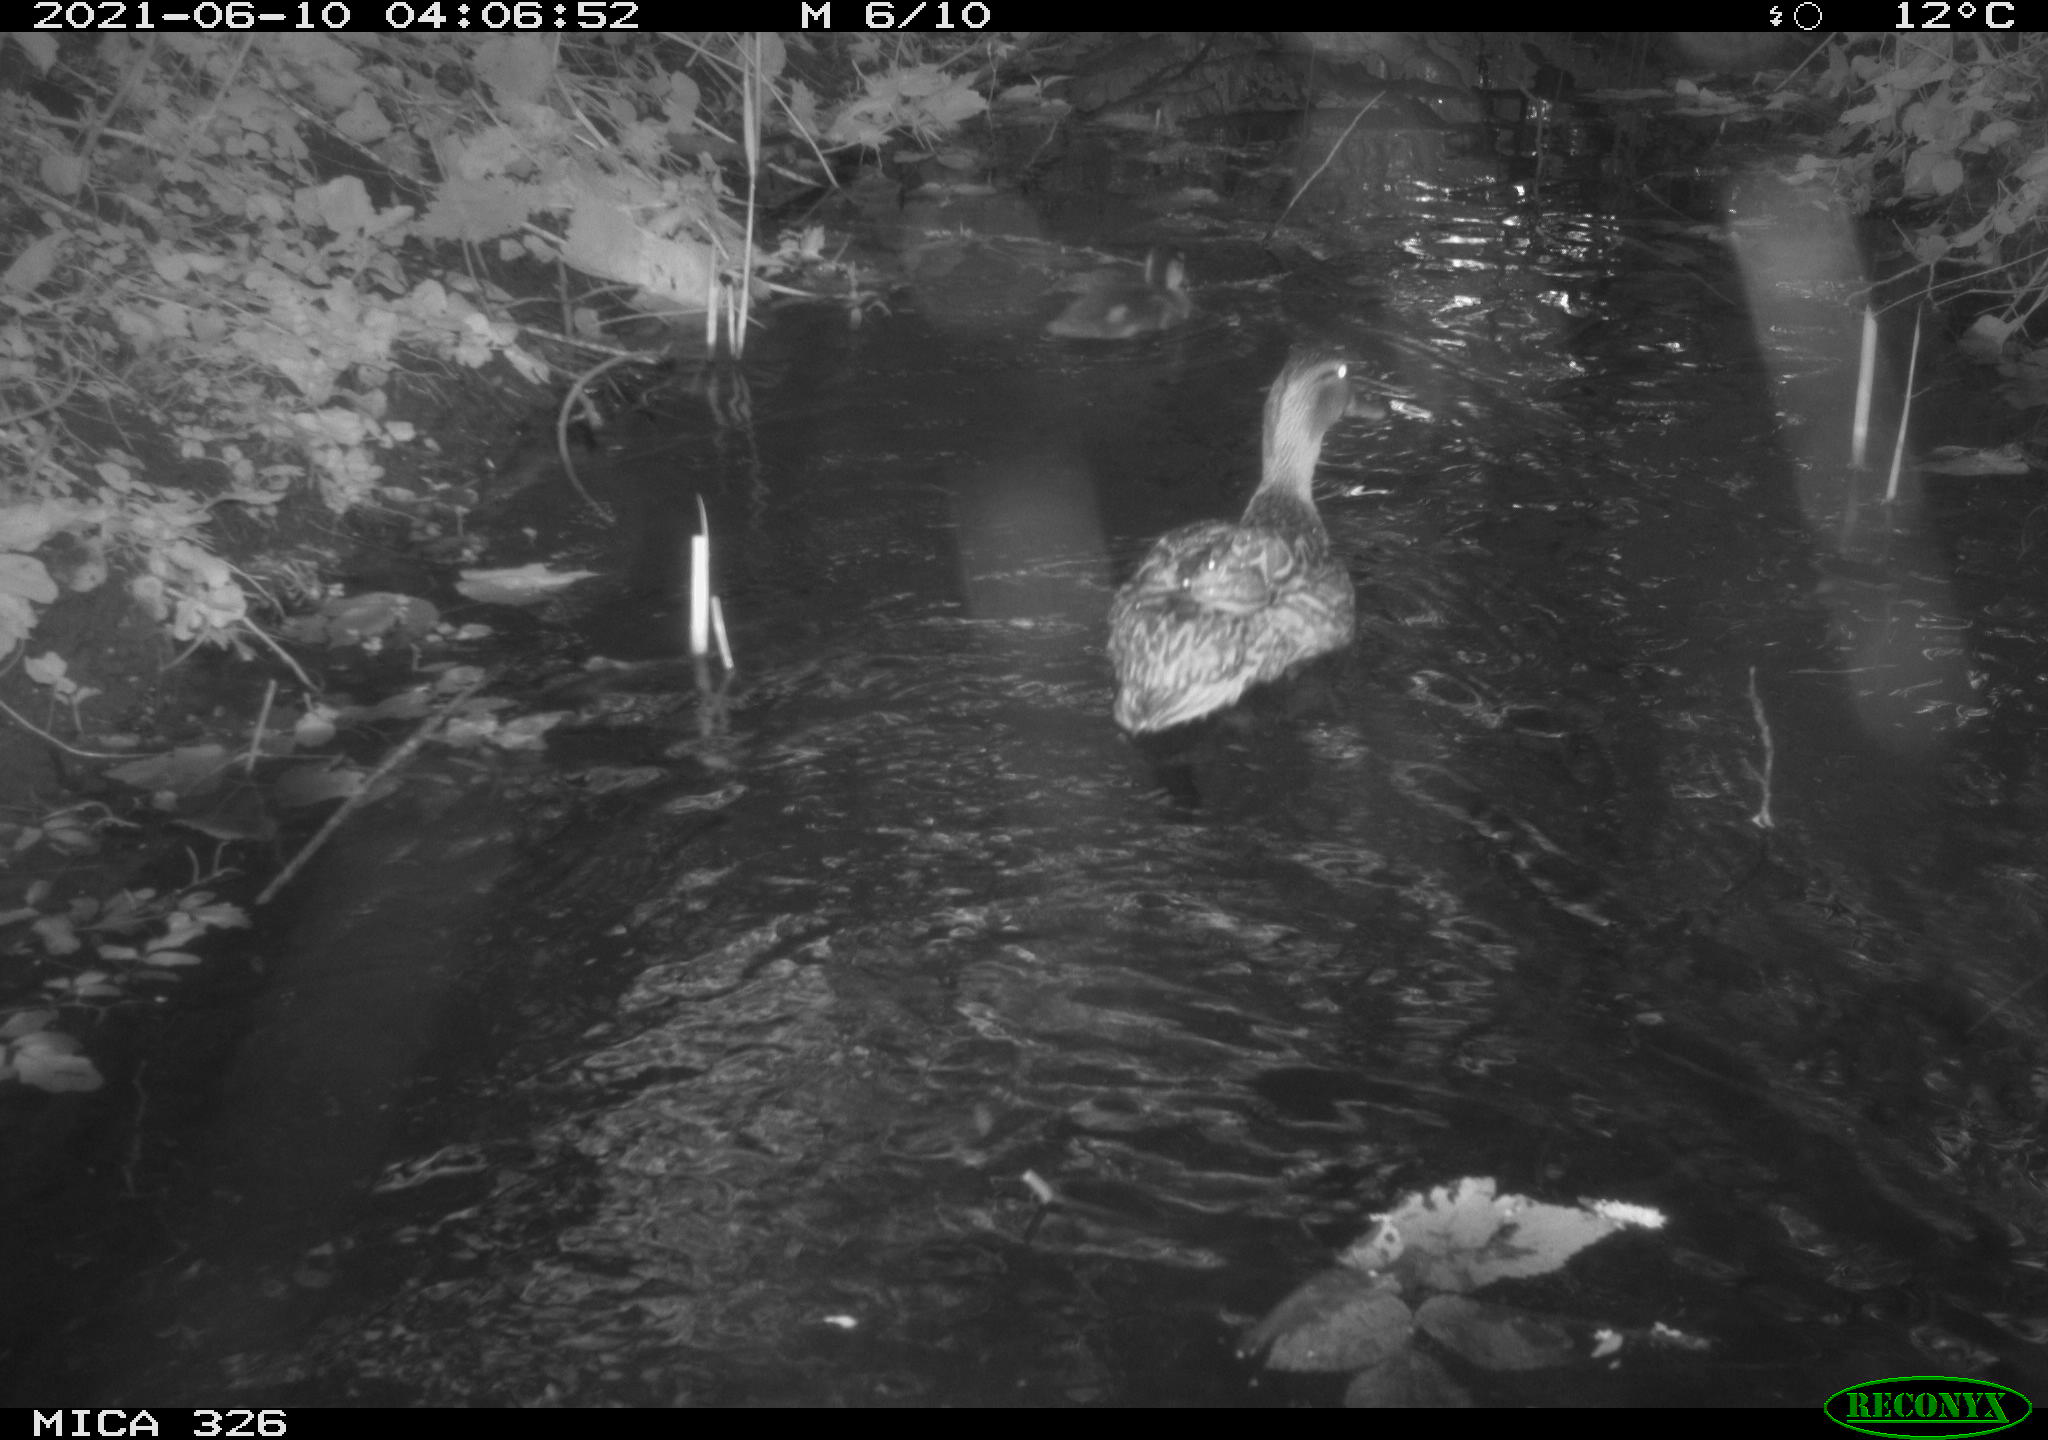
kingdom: Animalia
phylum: Chordata
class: Aves
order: Anseriformes
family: Anatidae
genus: Anas
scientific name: Anas platyrhynchos
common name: Mallard
